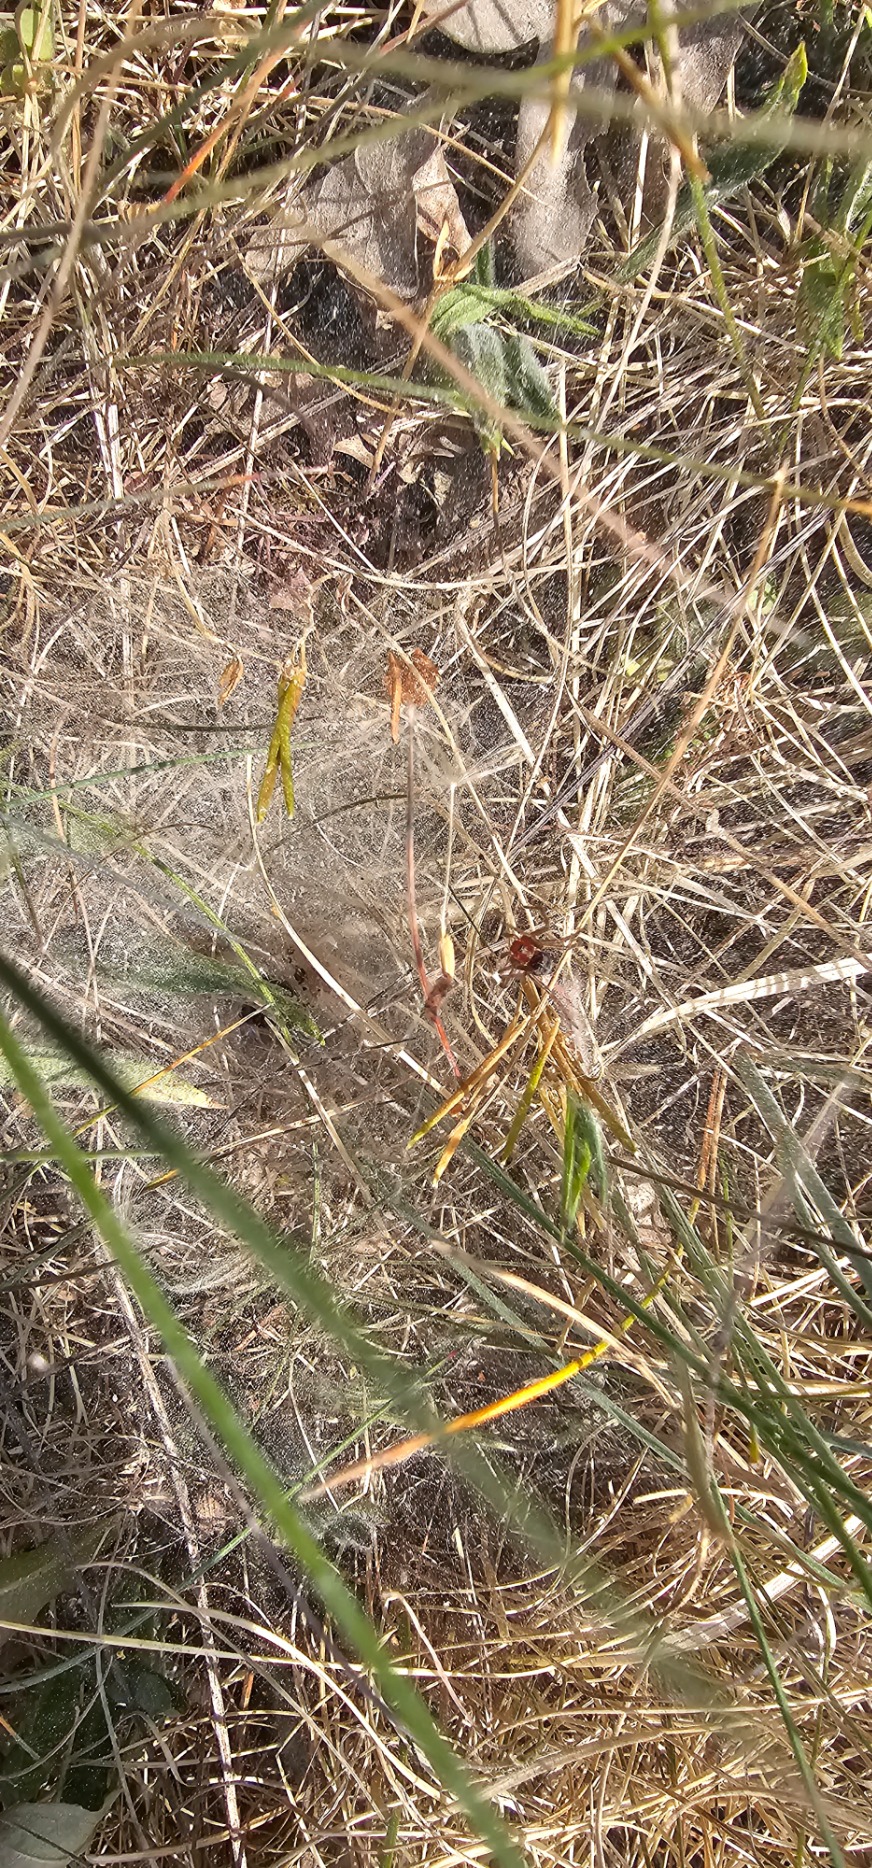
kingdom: Animalia
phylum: Arthropoda
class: Arachnida
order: Araneae
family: Agelenidae
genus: Agelena
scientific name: Agelena labyrinthica
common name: Labyrintedderkop
